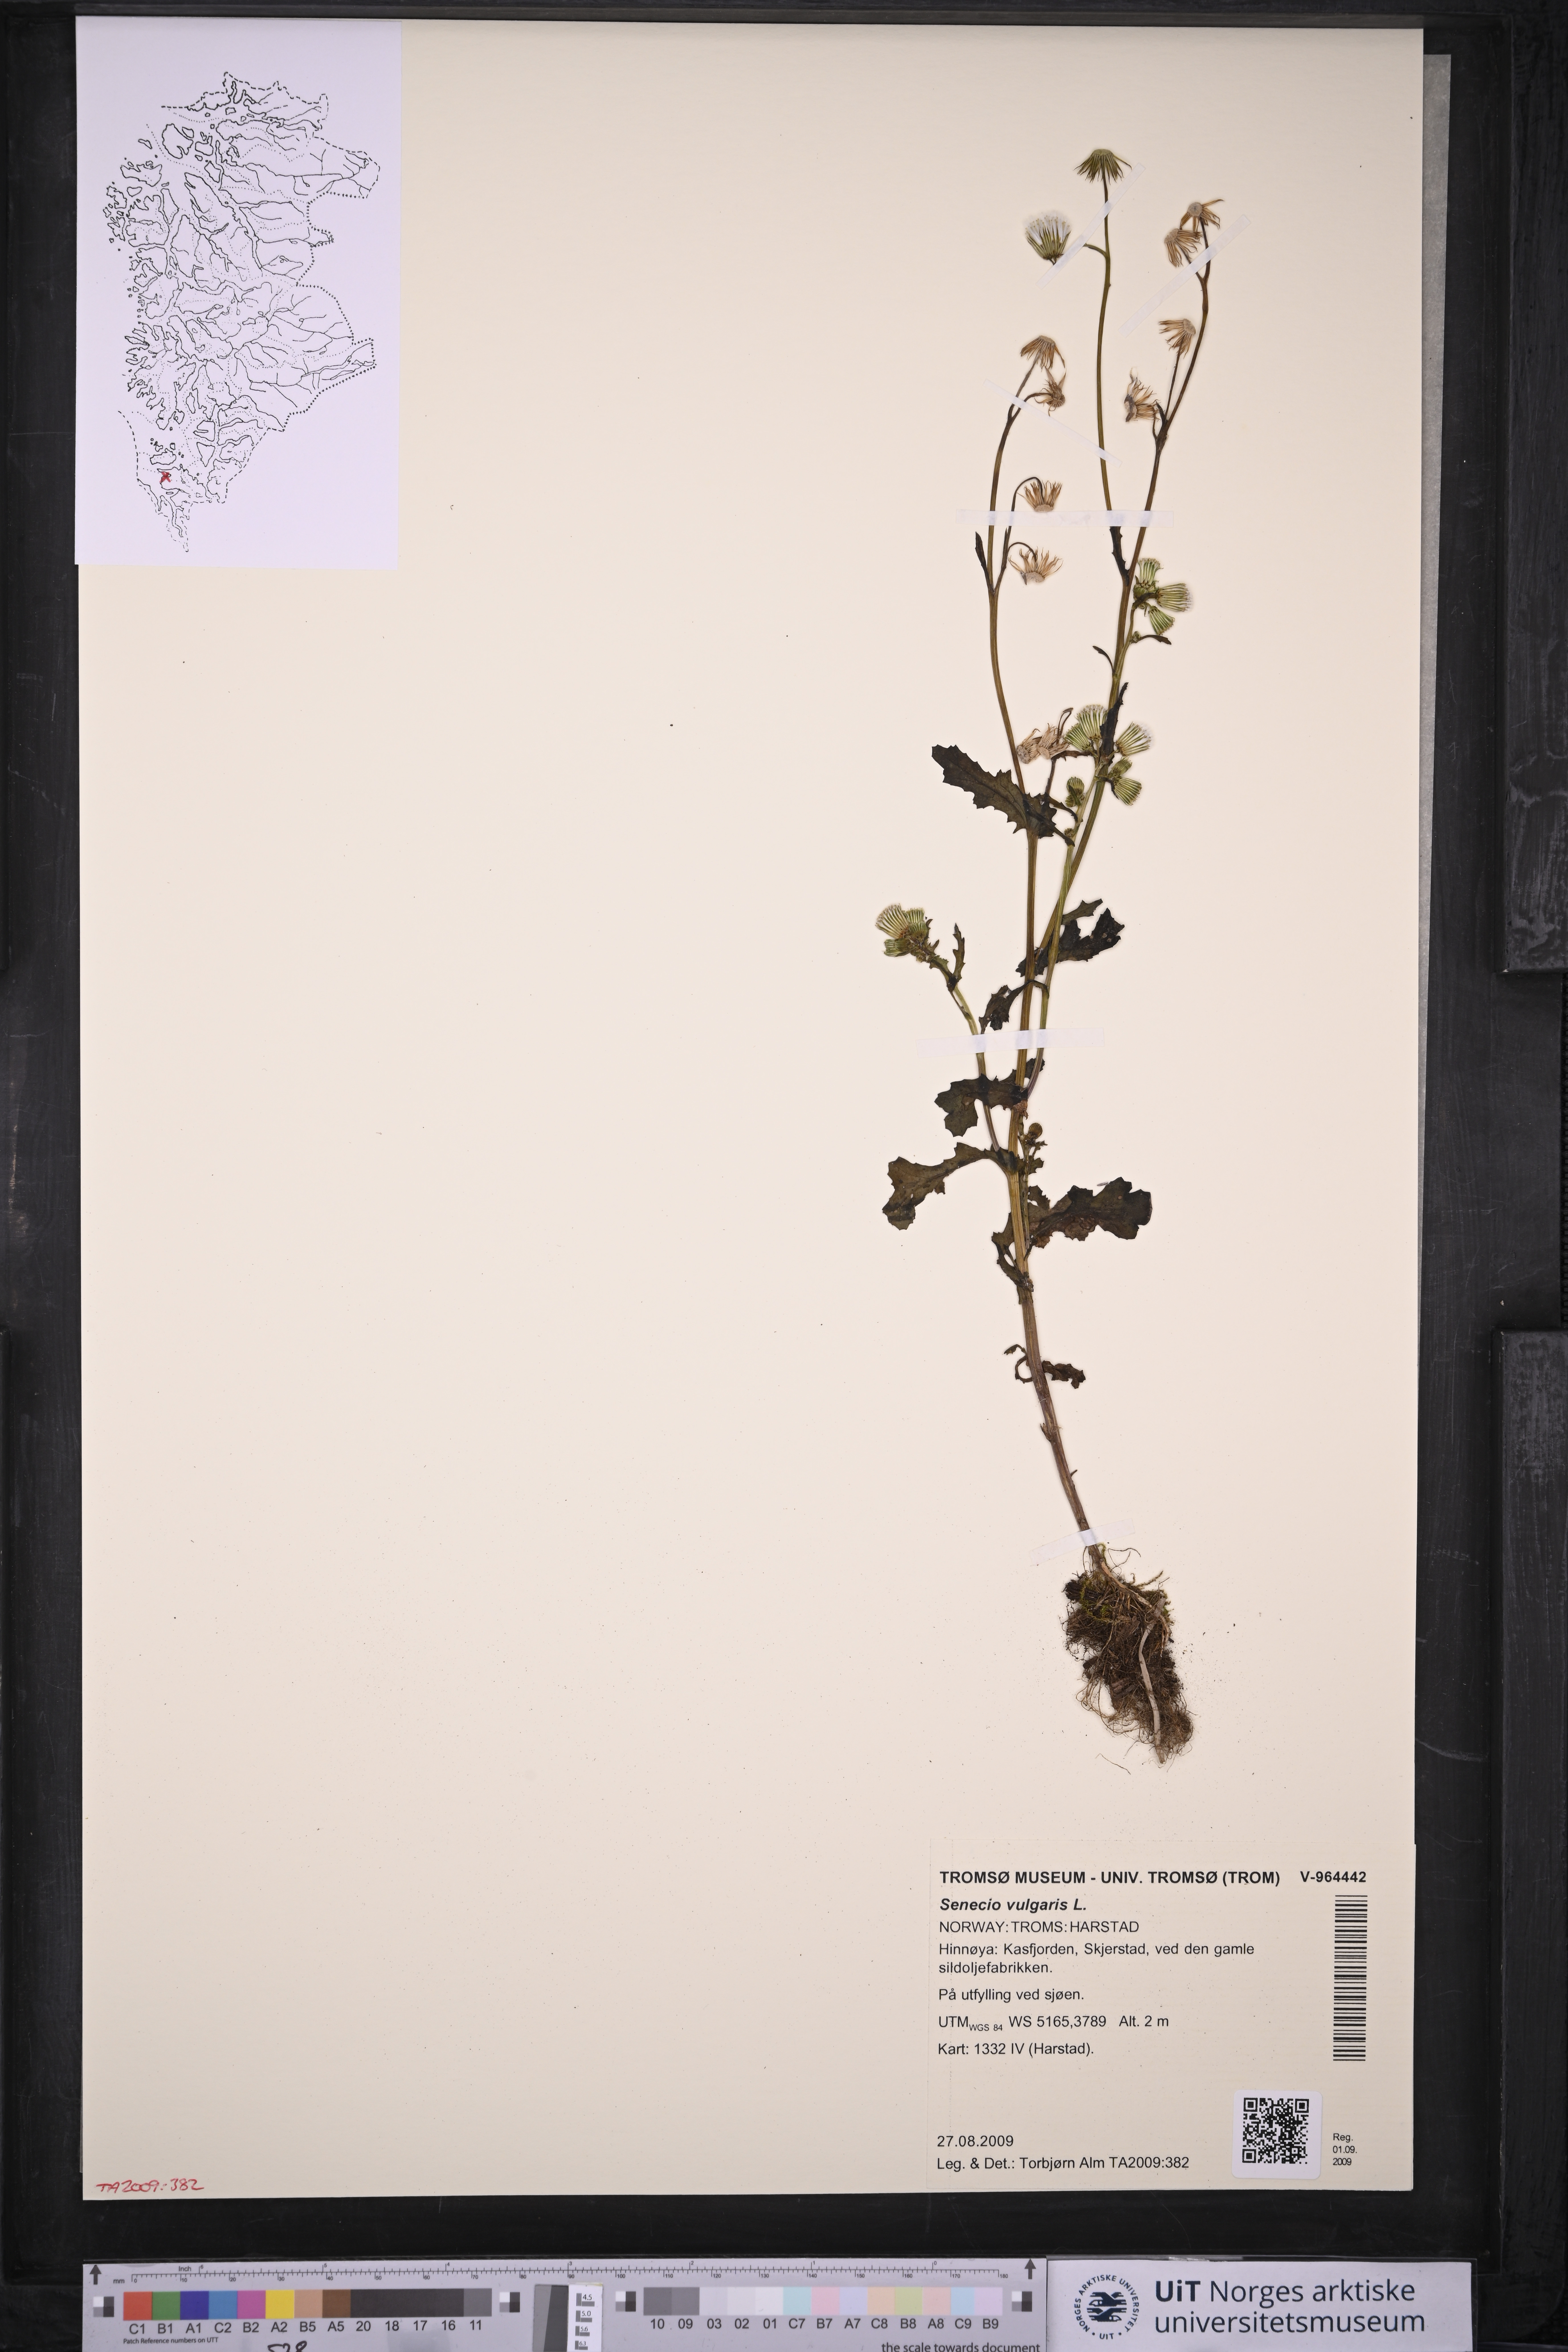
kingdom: Plantae
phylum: Tracheophyta
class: Magnoliopsida
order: Asterales
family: Asteraceae
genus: Senecio
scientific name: Senecio vulgaris
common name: Old-man-in-the-spring
